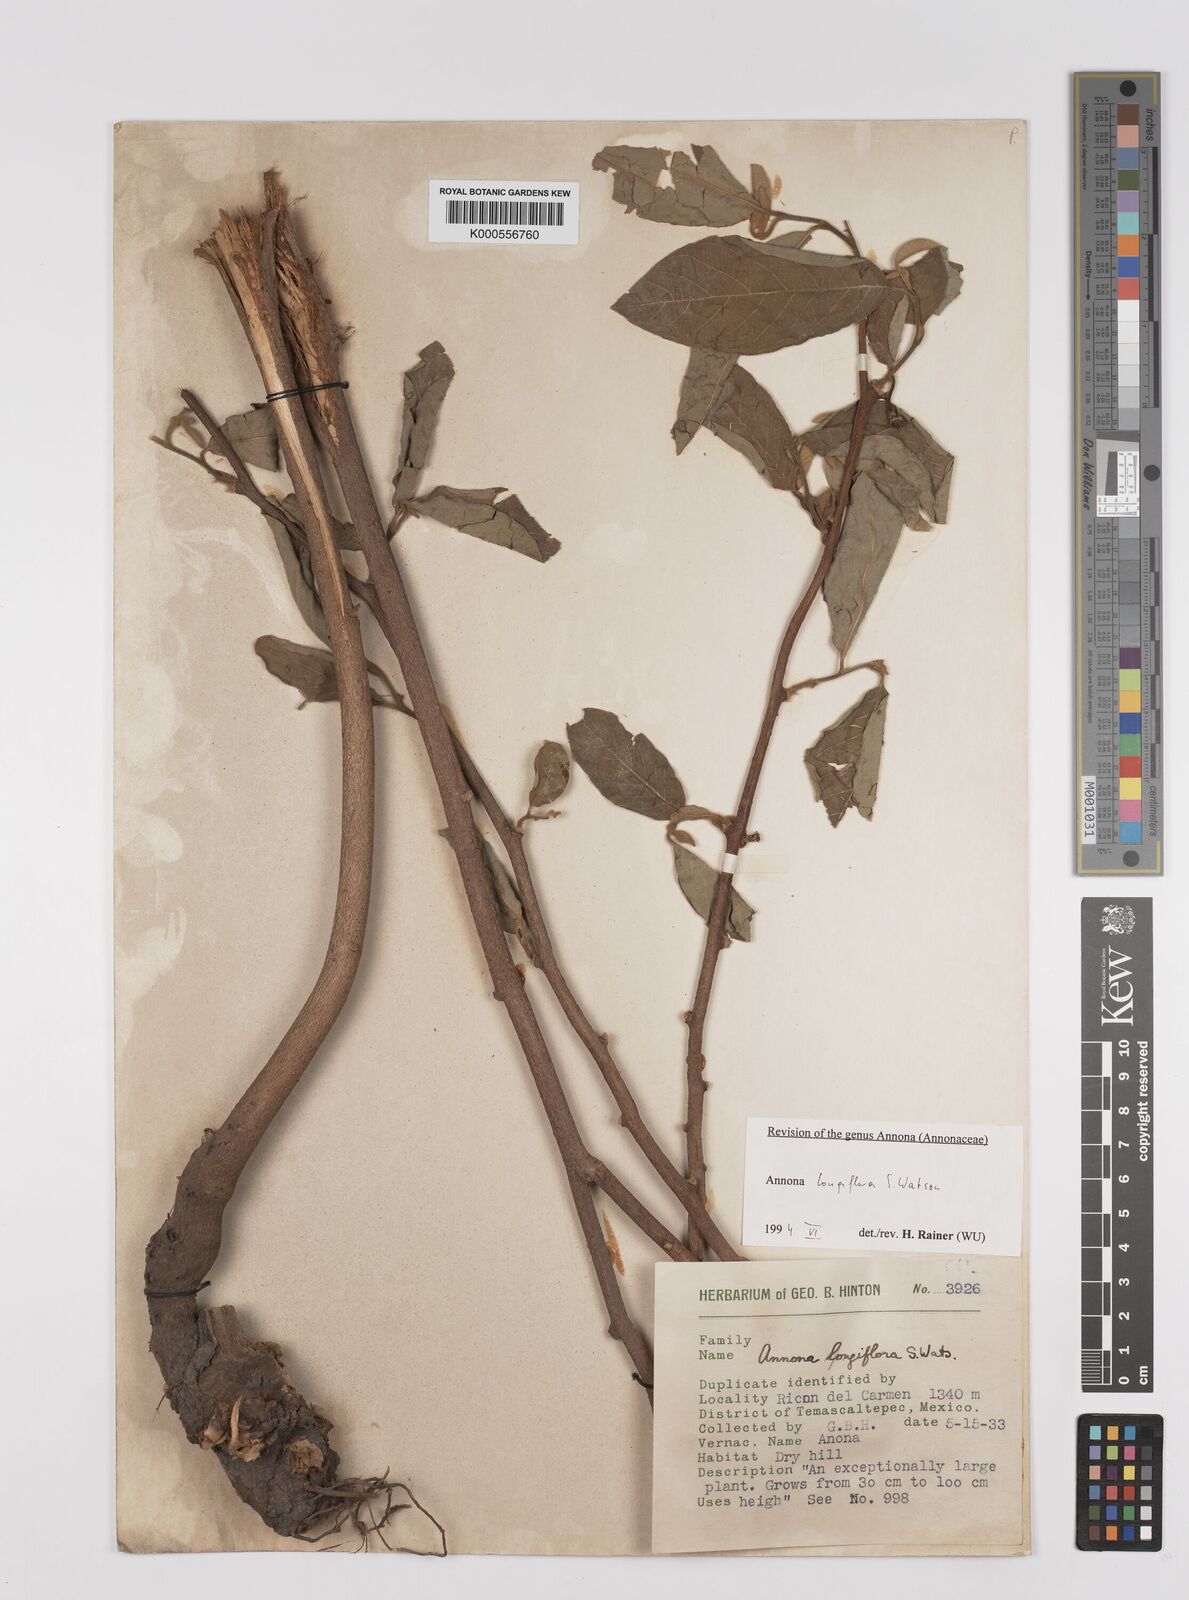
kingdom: Plantae
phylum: Tracheophyta
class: Magnoliopsida
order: Magnoliales
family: Annonaceae
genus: Annona
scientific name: Annona longiflora
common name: Wild cherimoya of jalisco
